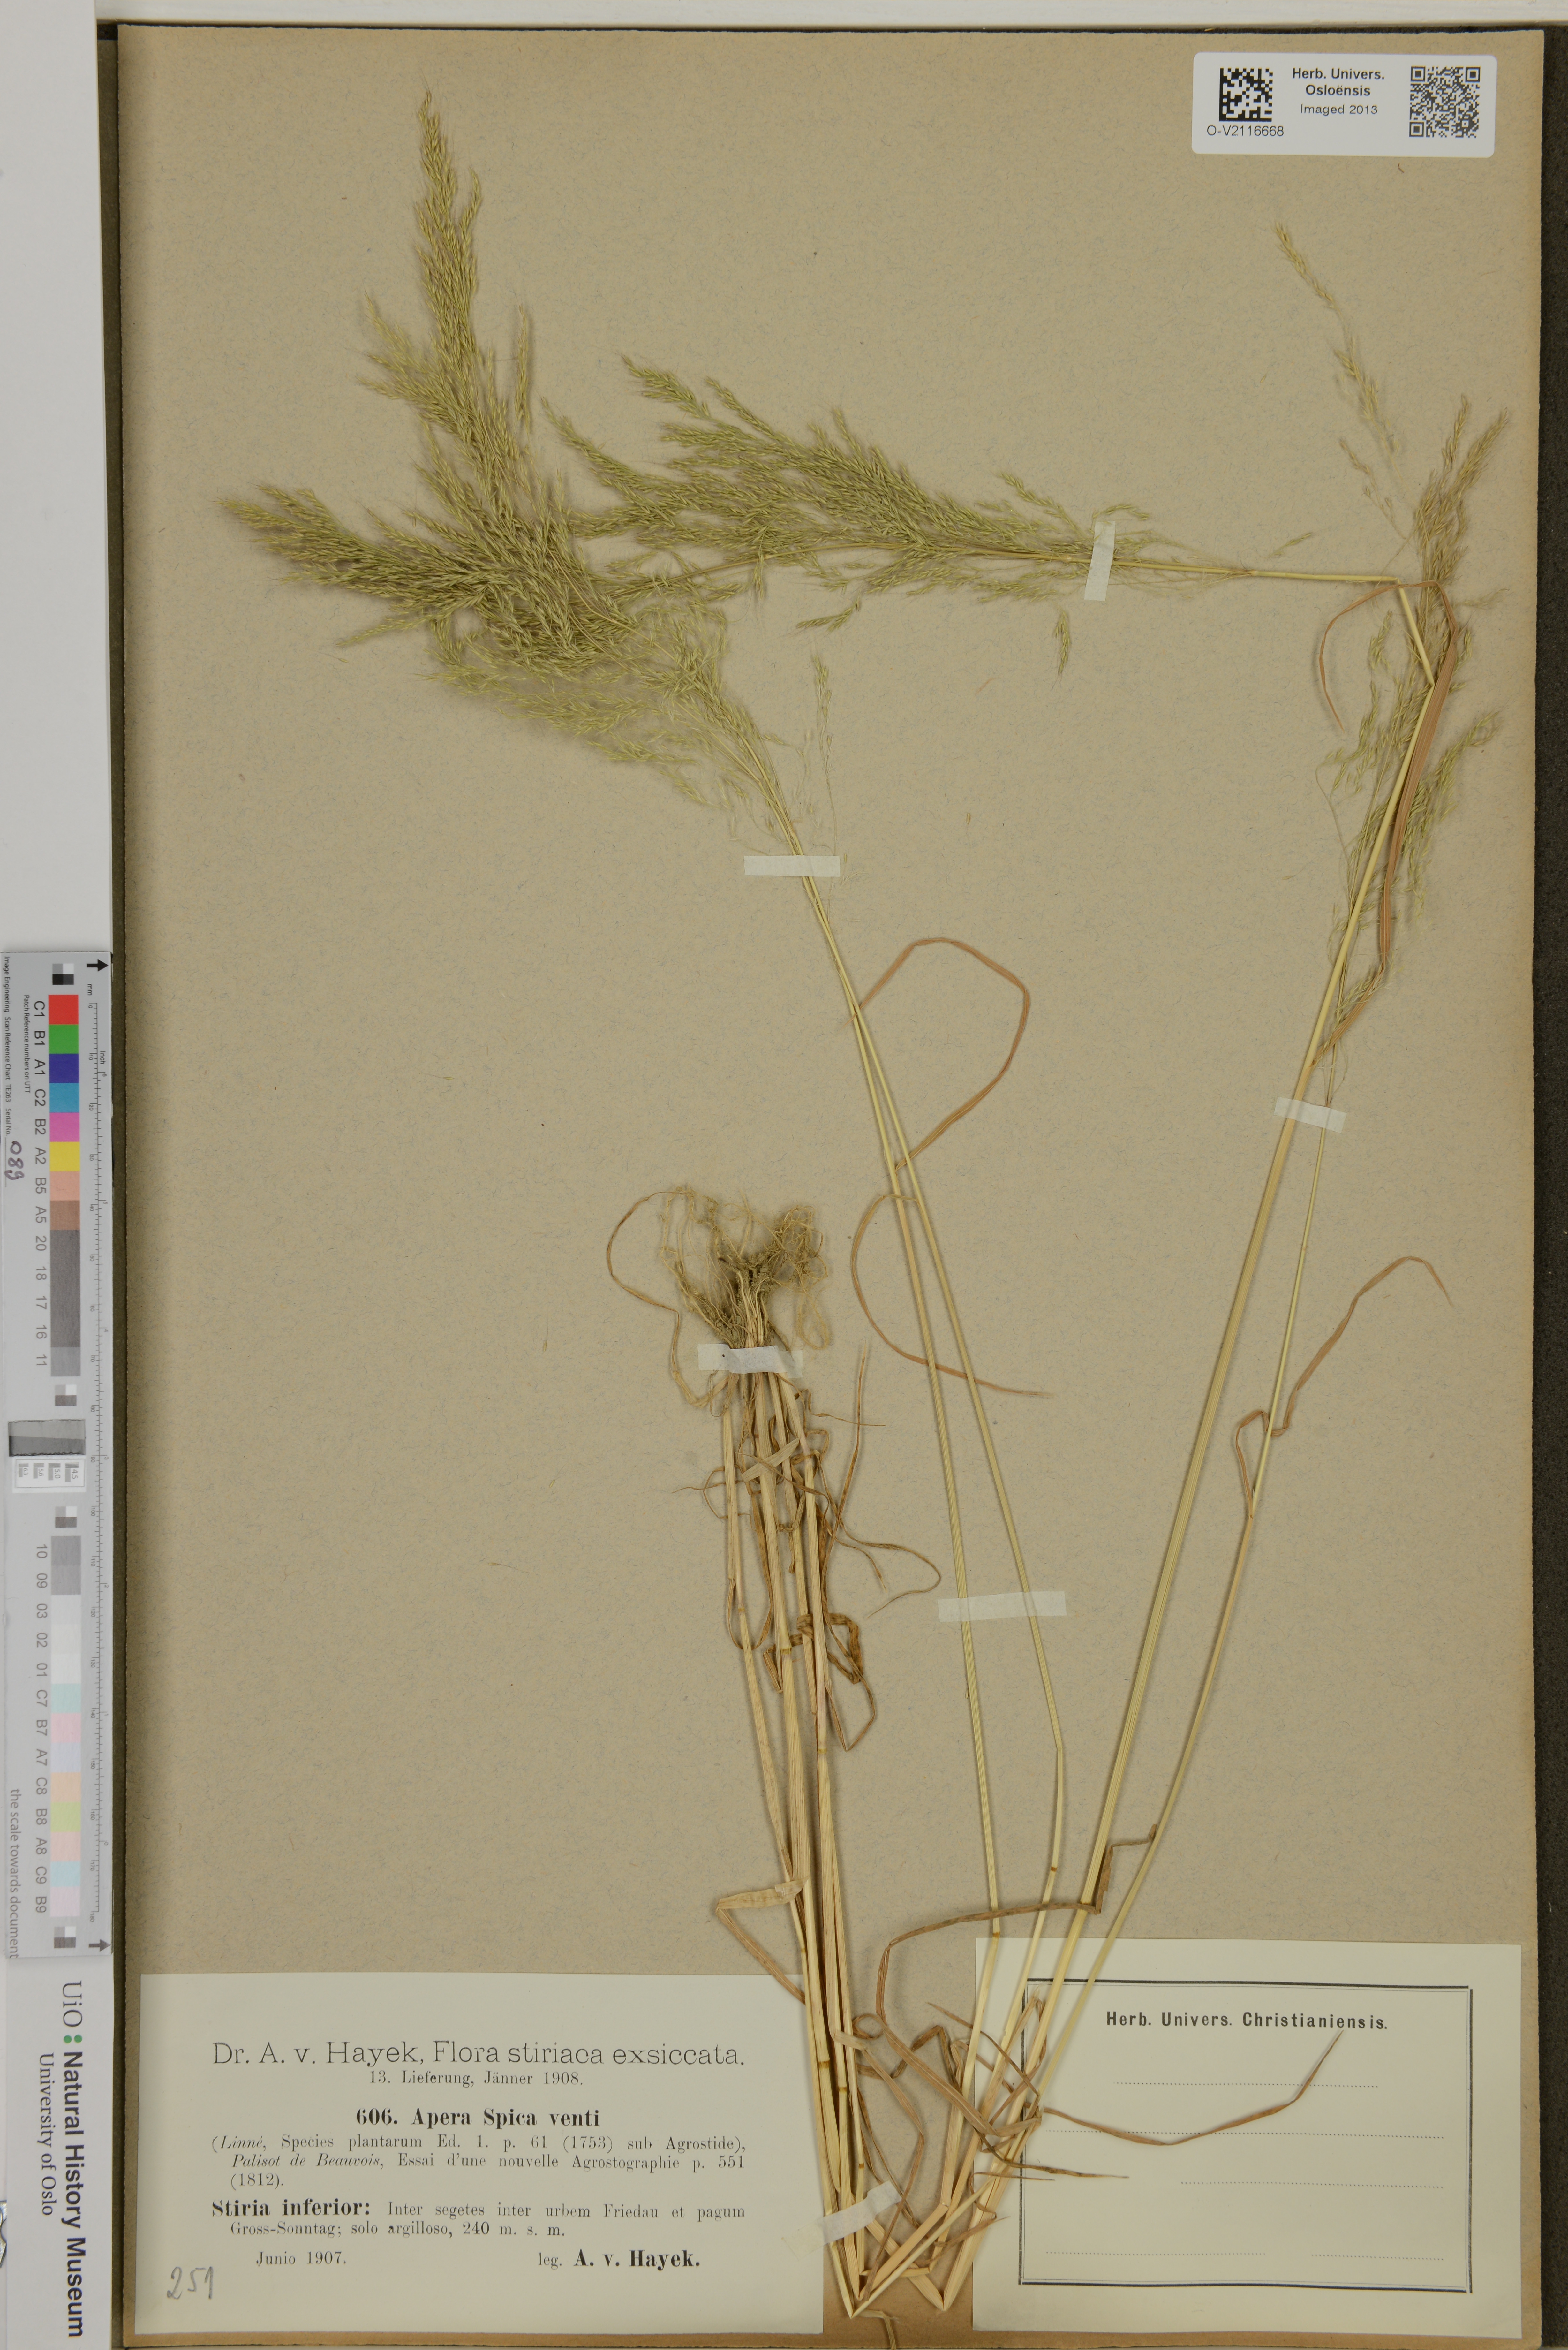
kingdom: Plantae
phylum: Tracheophyta
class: Liliopsida
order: Poales
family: Poaceae
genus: Apera
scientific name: Apera spica-venti
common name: Loose silky-bent
